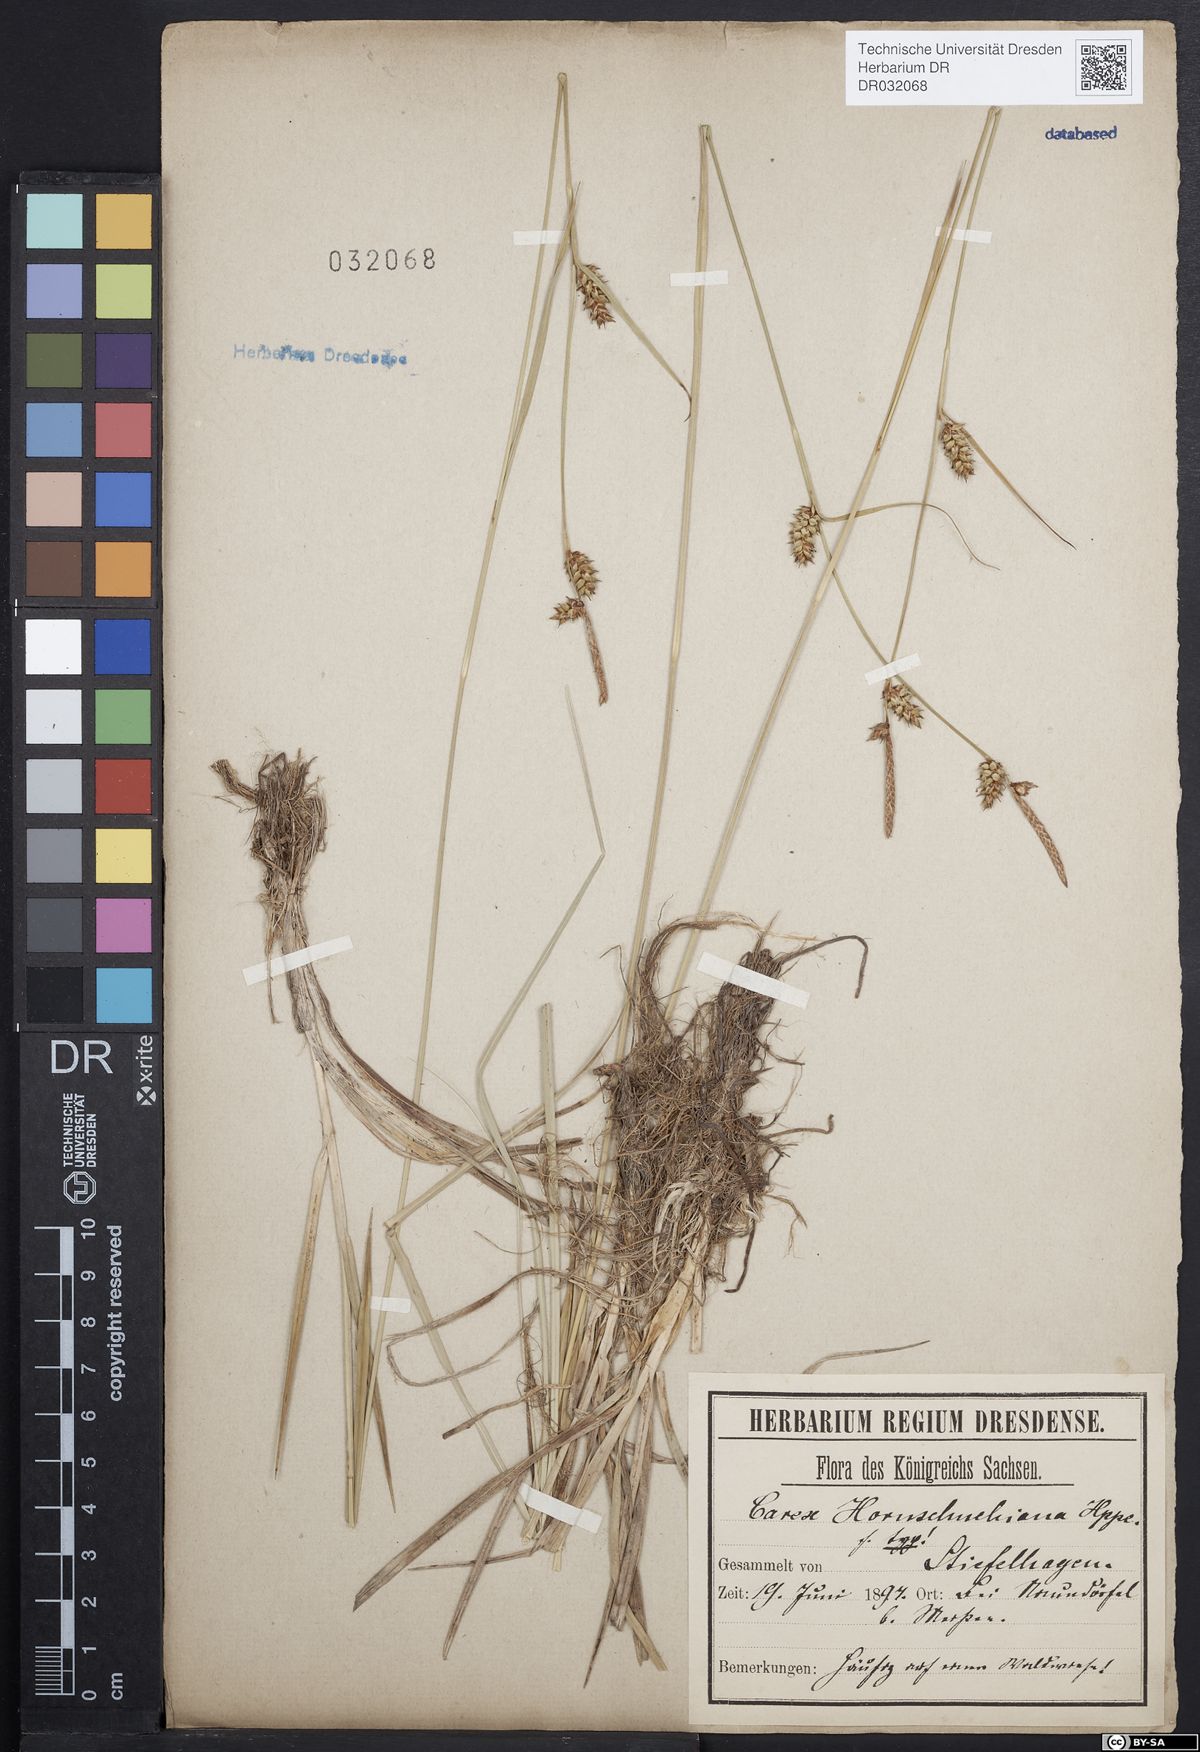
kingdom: Plantae
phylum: Tracheophyta
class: Liliopsida
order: Poales
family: Cyperaceae
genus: Carex
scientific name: Carex hostiana
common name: Tawny sedge
